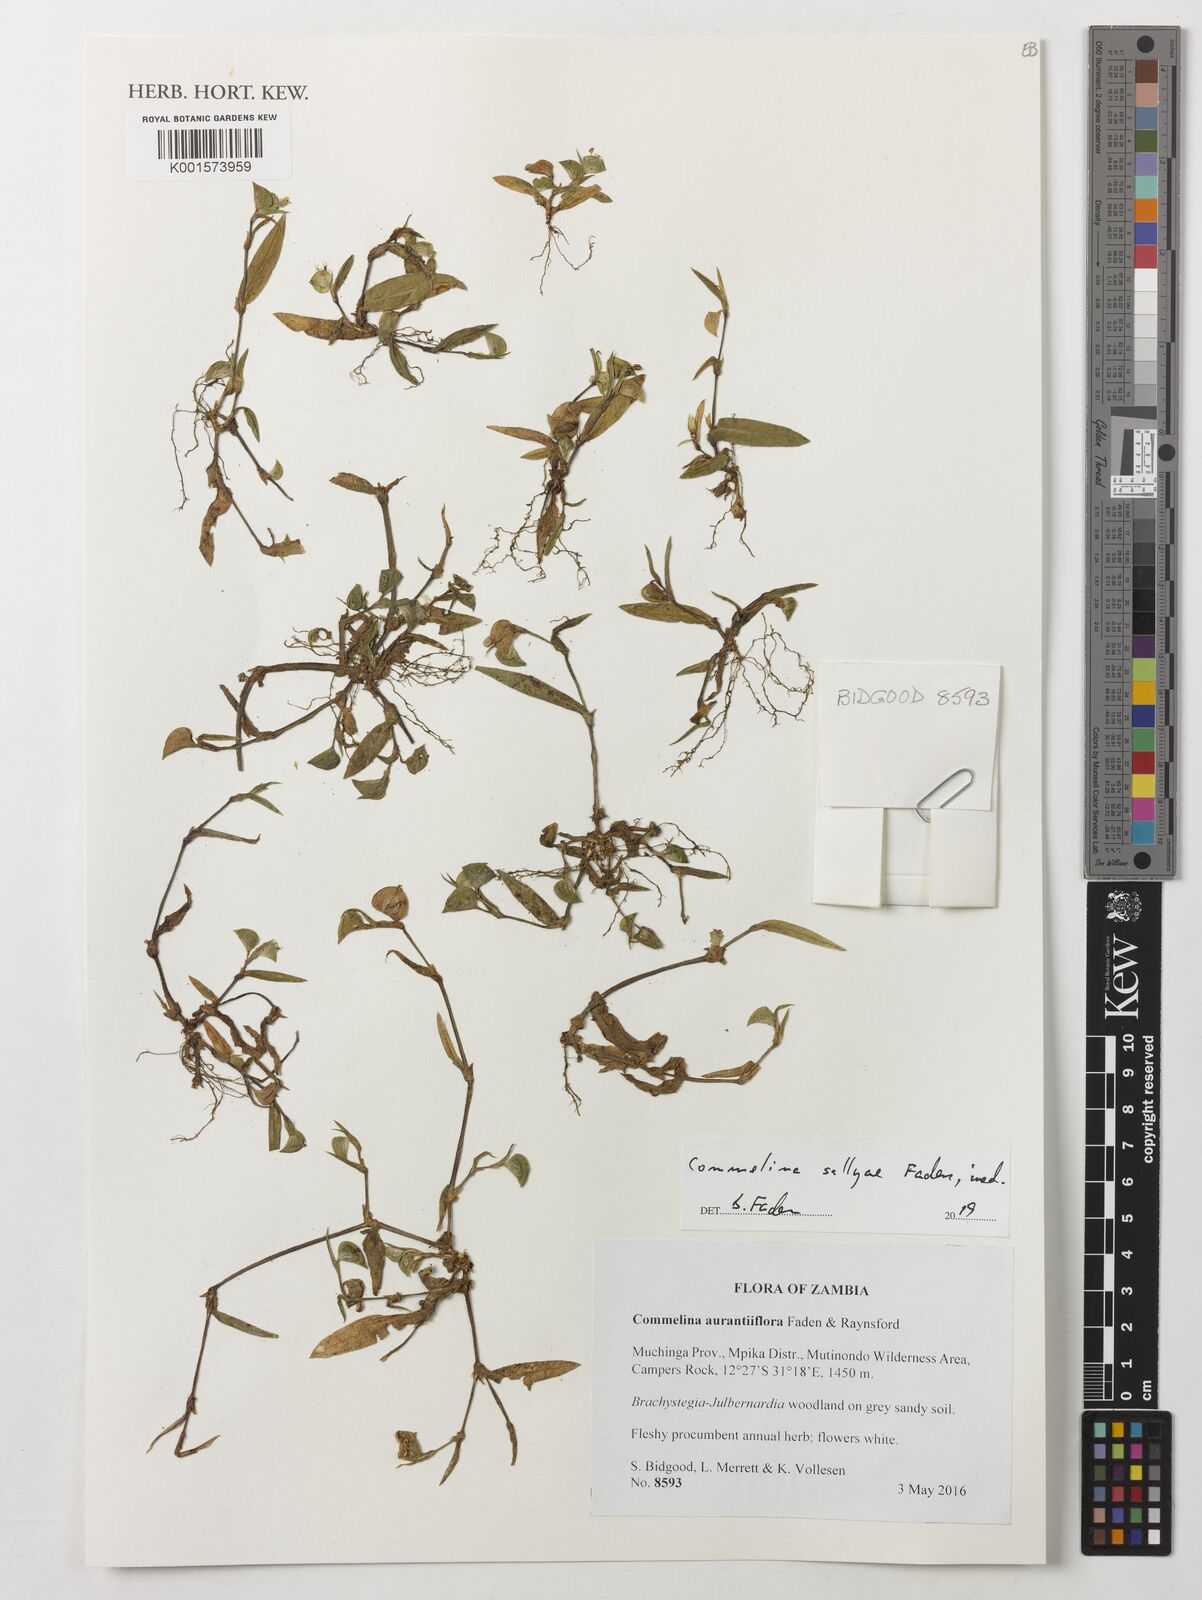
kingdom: Plantae
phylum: Tracheophyta
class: Liliopsida
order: Commelinales
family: Commelinaceae
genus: Commelina
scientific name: Commelina
